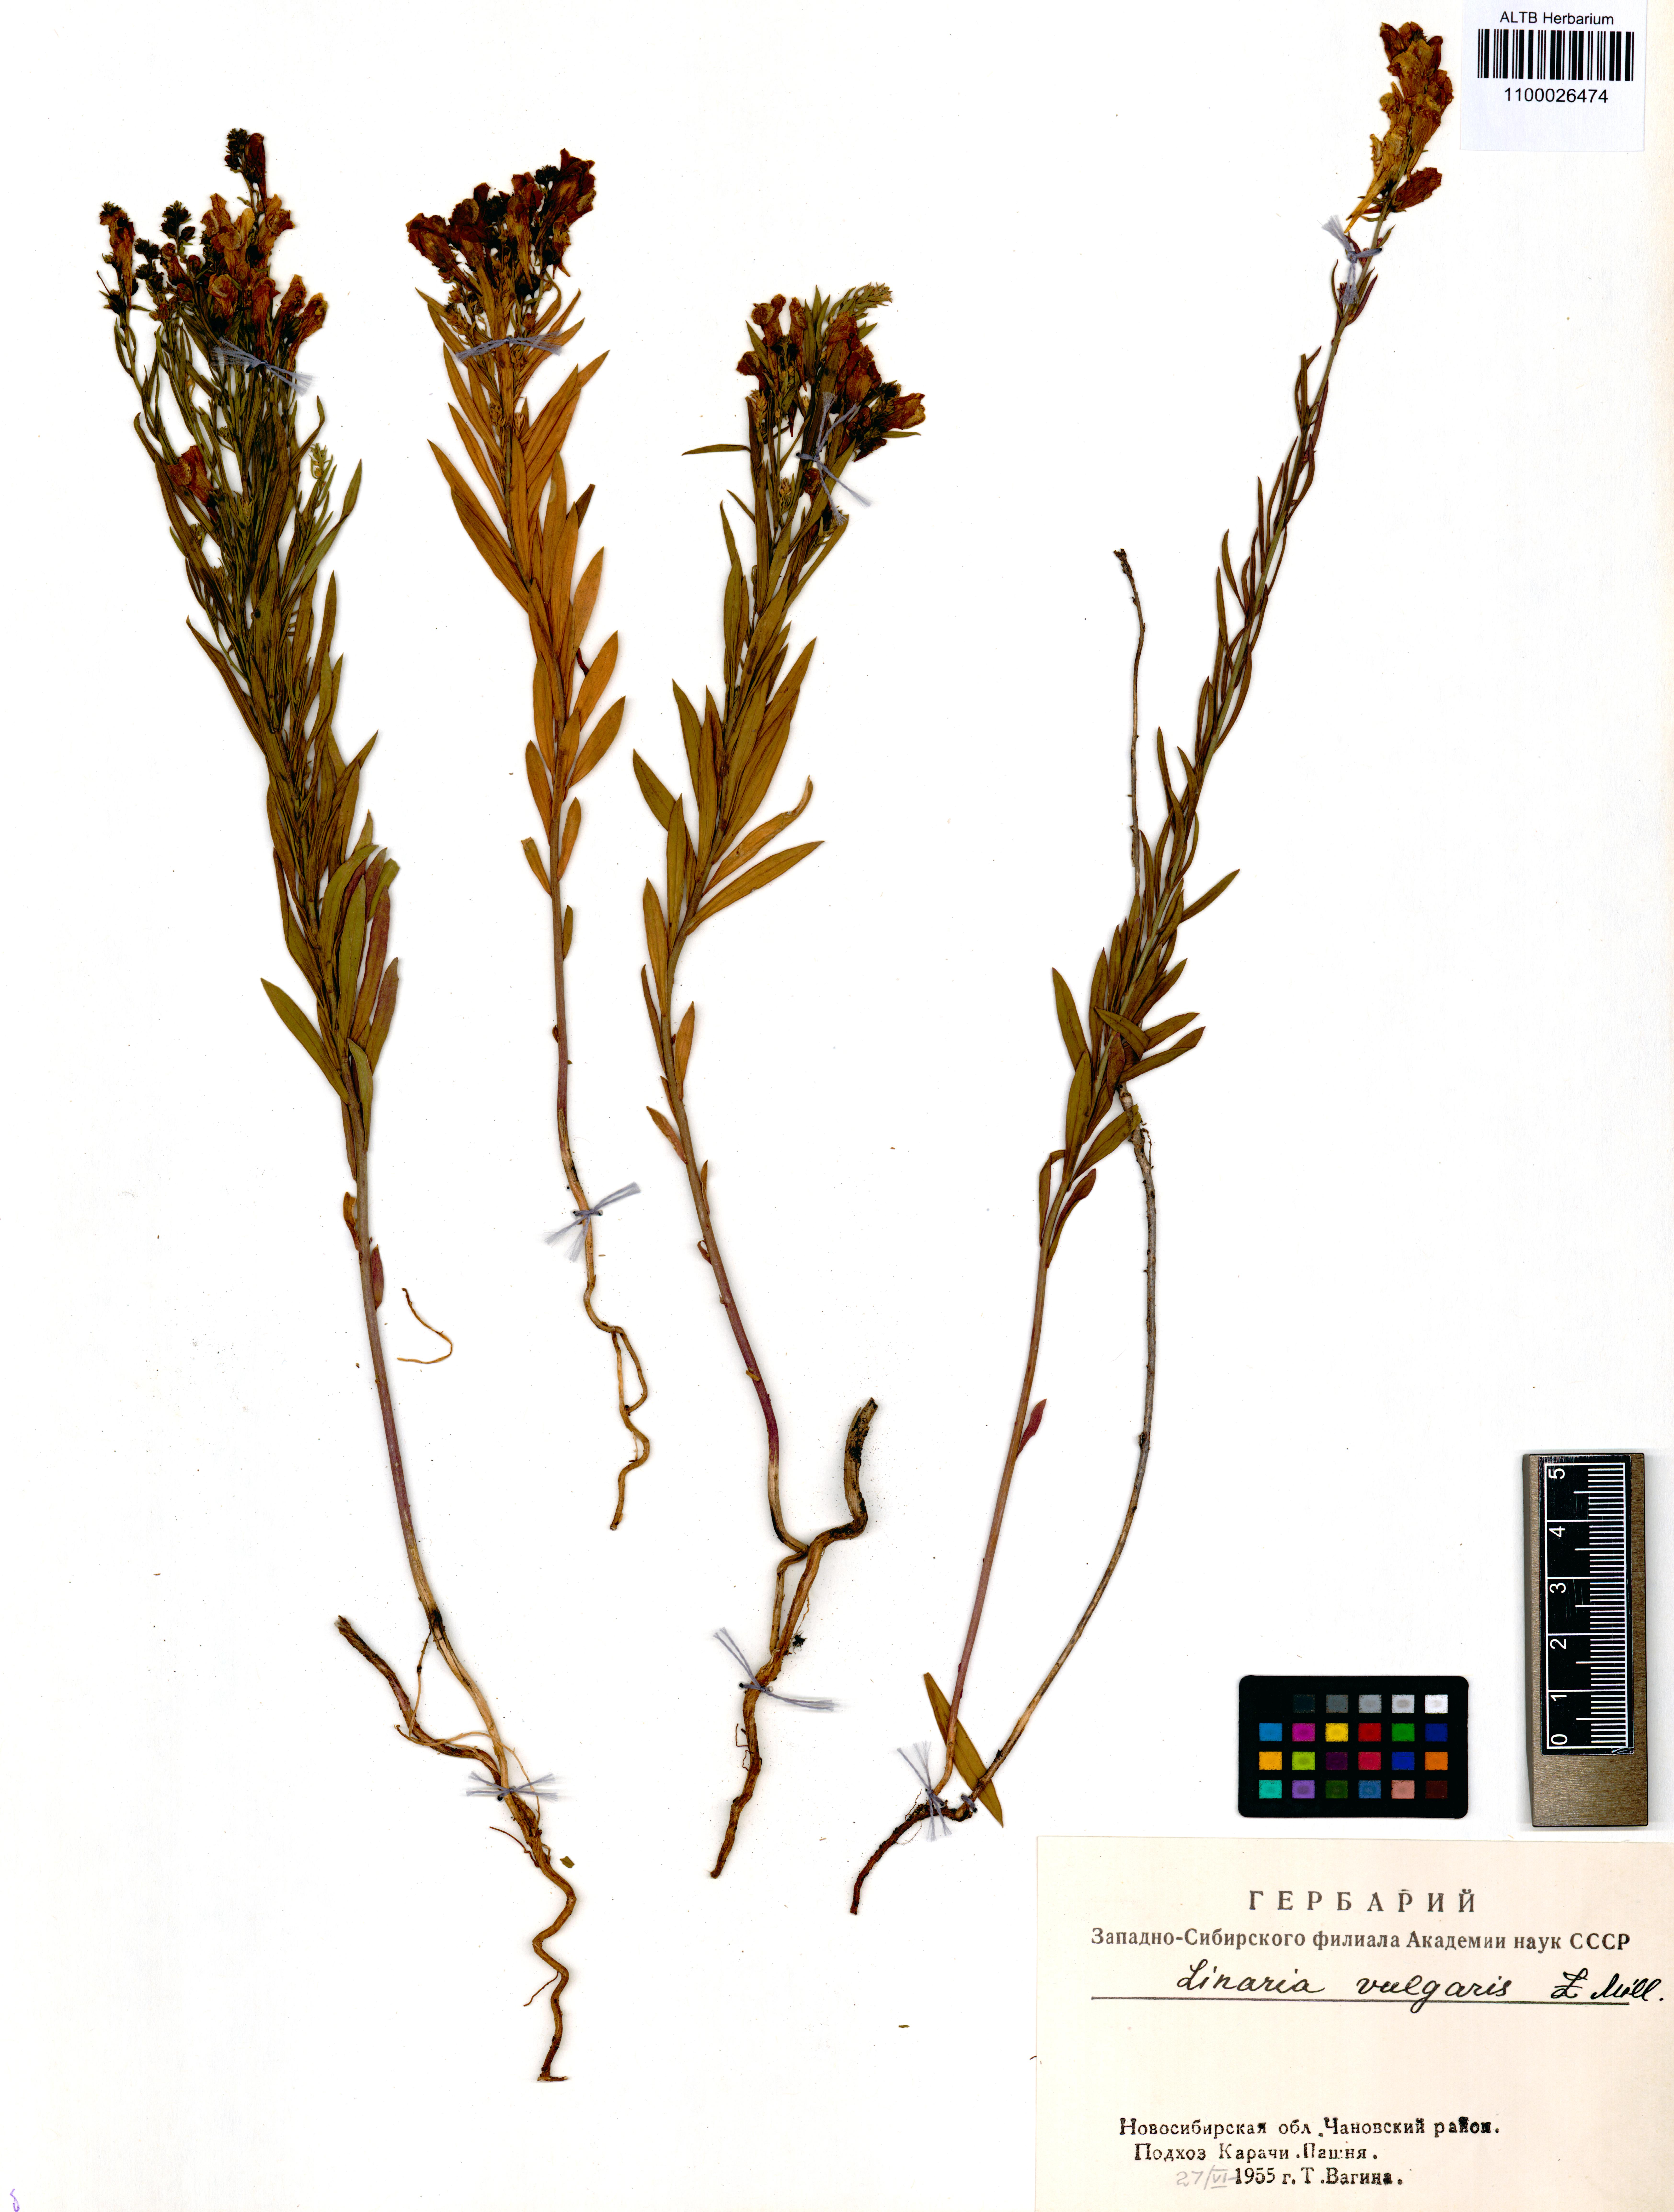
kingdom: Plantae
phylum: Tracheophyta
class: Magnoliopsida
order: Lamiales
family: Plantaginaceae
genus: Linaria
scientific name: Linaria vulgaris
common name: Butter and eggs
